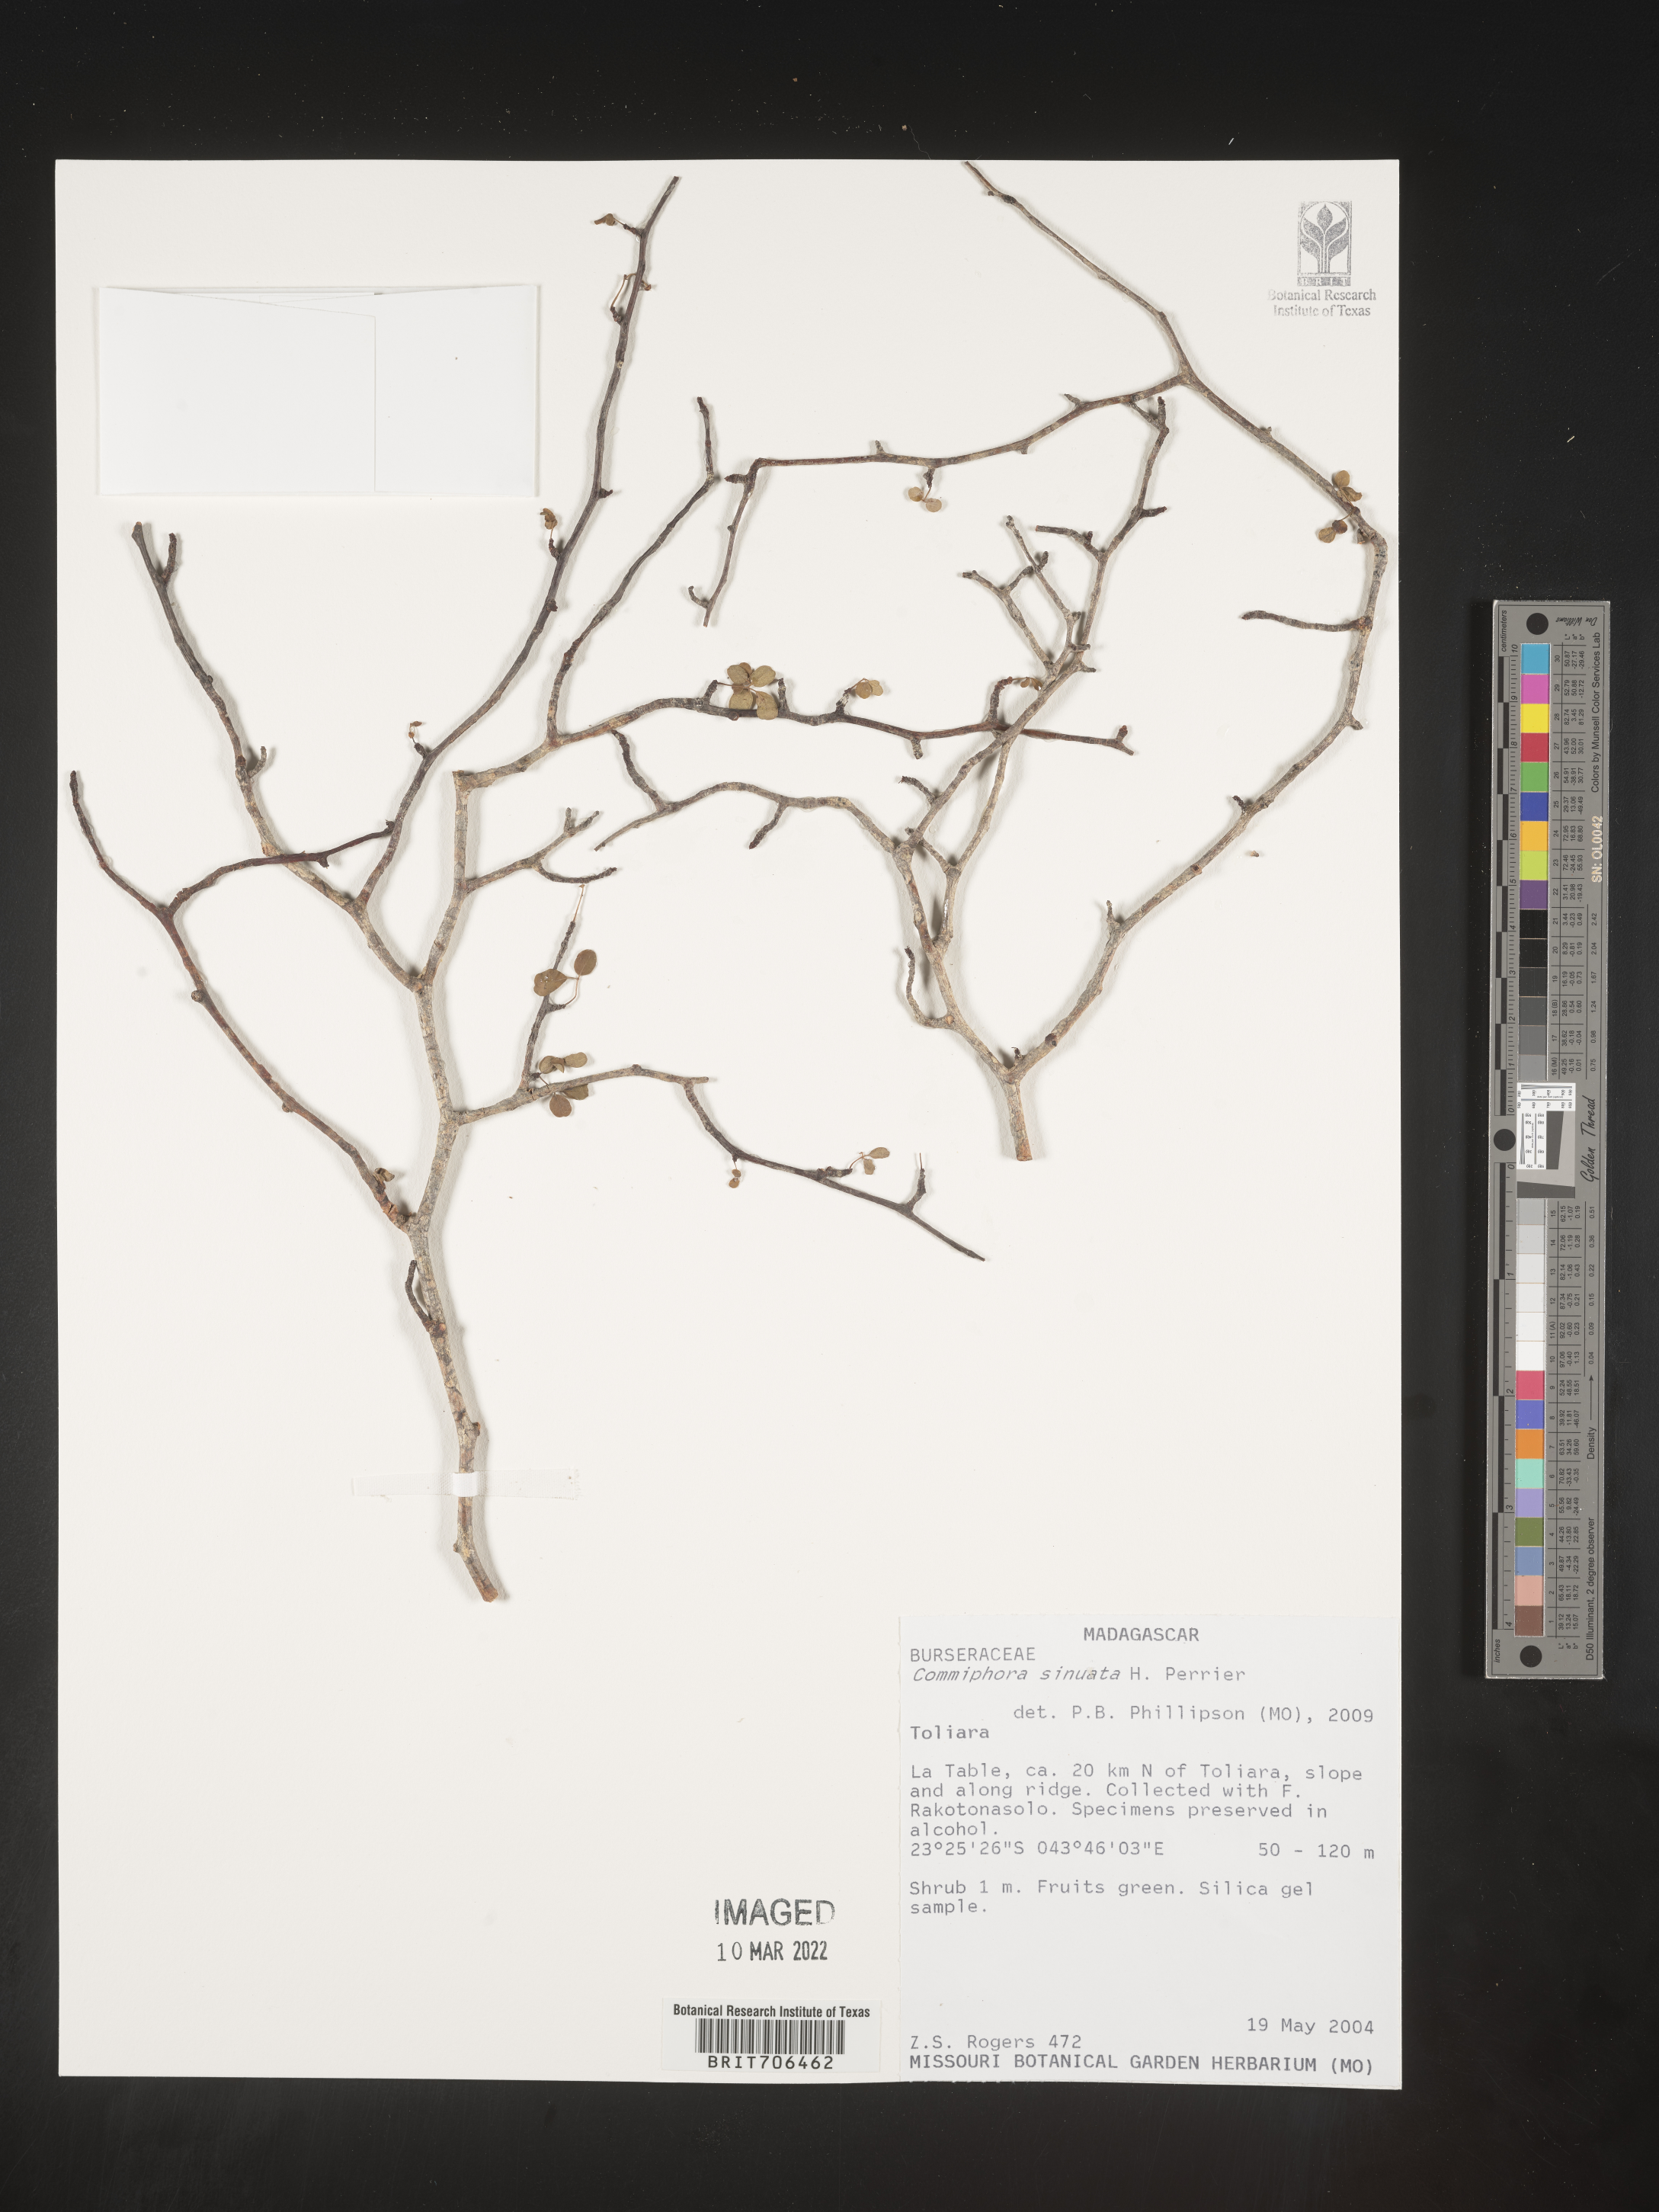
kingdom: Plantae
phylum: Tracheophyta
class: Magnoliopsida
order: Sapindales
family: Burseraceae
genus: Commiphora
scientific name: Commiphora
